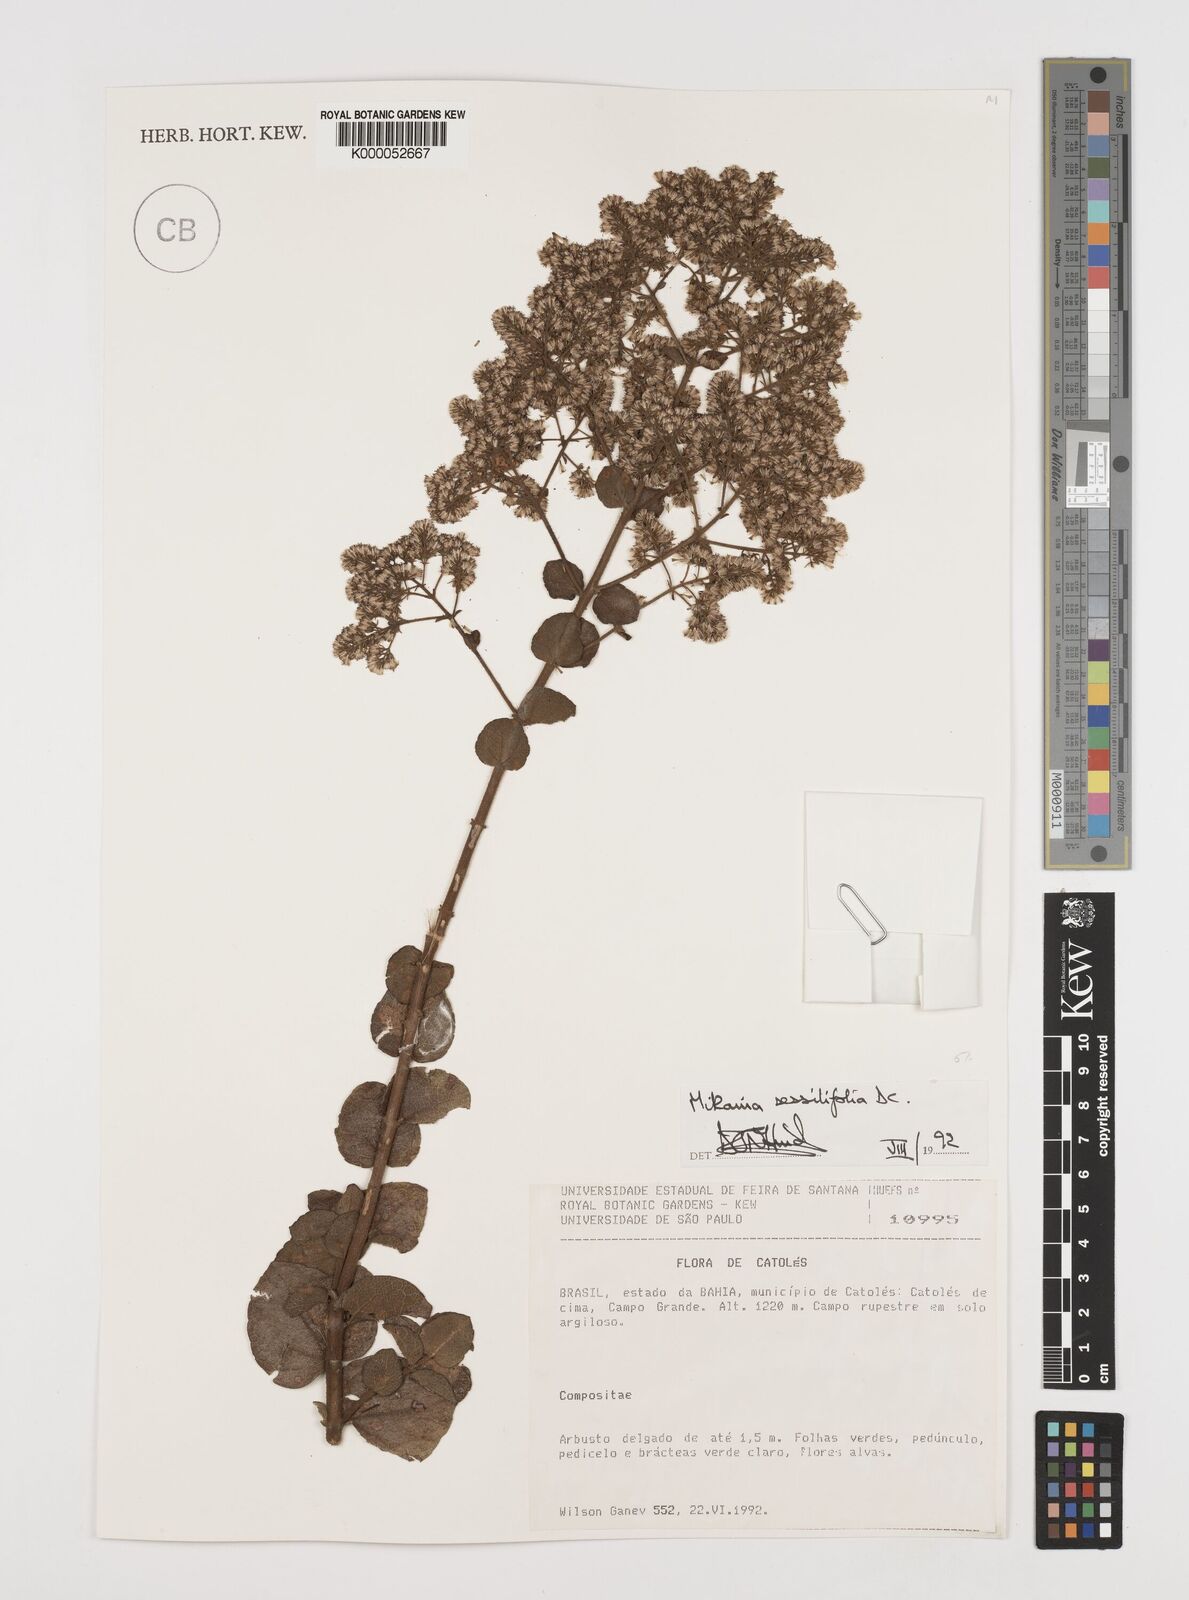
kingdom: Plantae
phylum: Tracheophyta
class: Magnoliopsida
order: Asterales
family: Asteraceae
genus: Mikania
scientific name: Mikania sessilifolia
